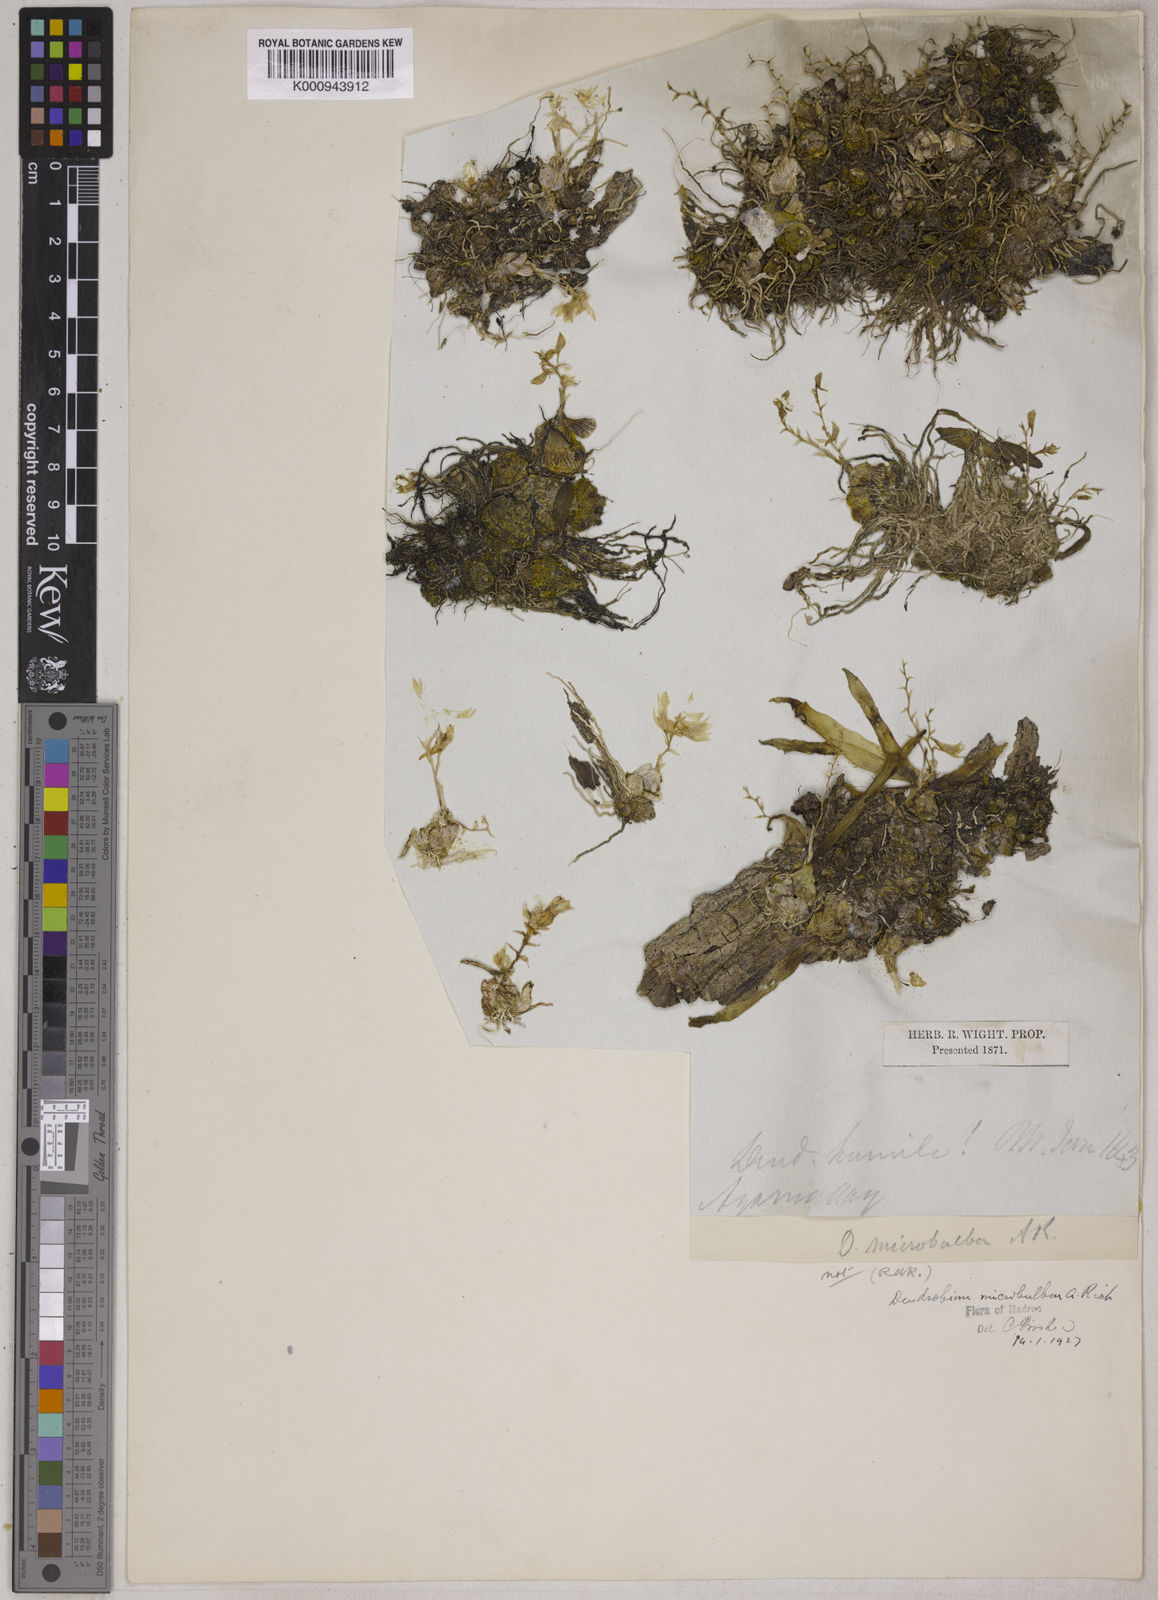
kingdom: Plantae
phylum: Tracheophyta
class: Liliopsida
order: Asparagales
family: Orchidaceae
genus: Dendrobium
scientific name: Dendrobium microbulbon
